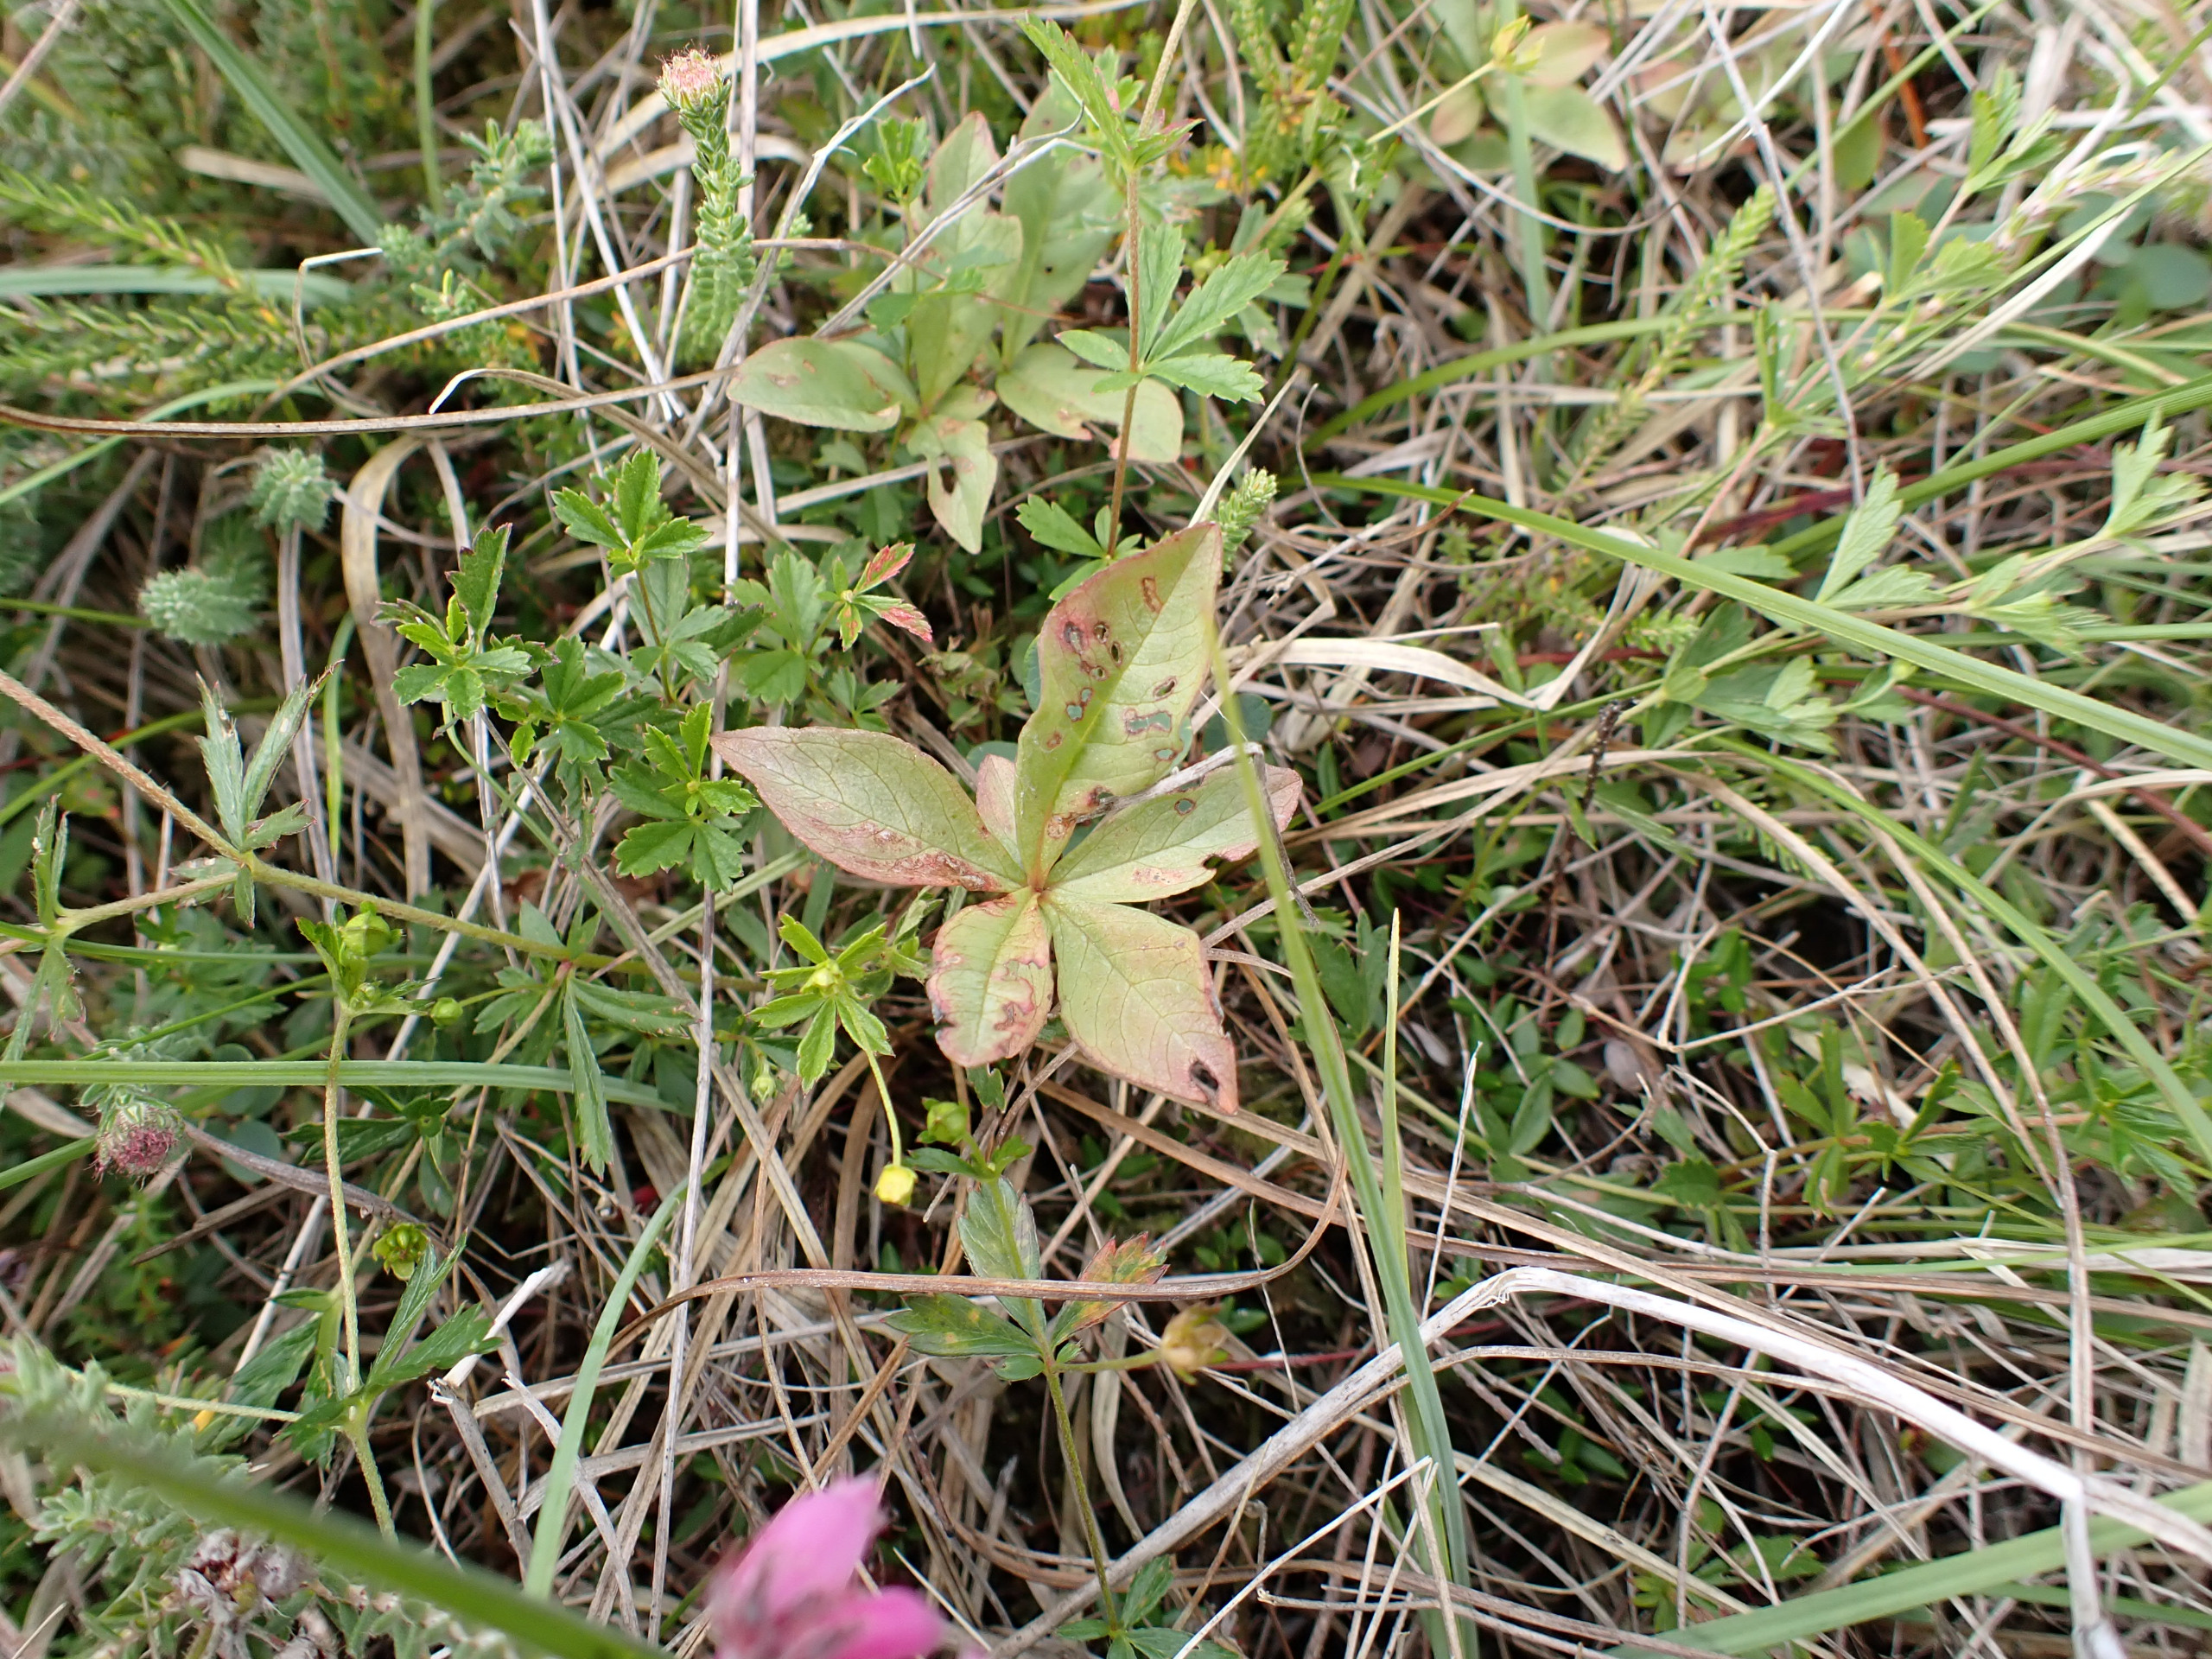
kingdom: Plantae
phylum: Tracheophyta
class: Magnoliopsida
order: Ericales
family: Primulaceae
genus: Lysimachia
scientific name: Lysimachia europaea
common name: Skovstjerne
